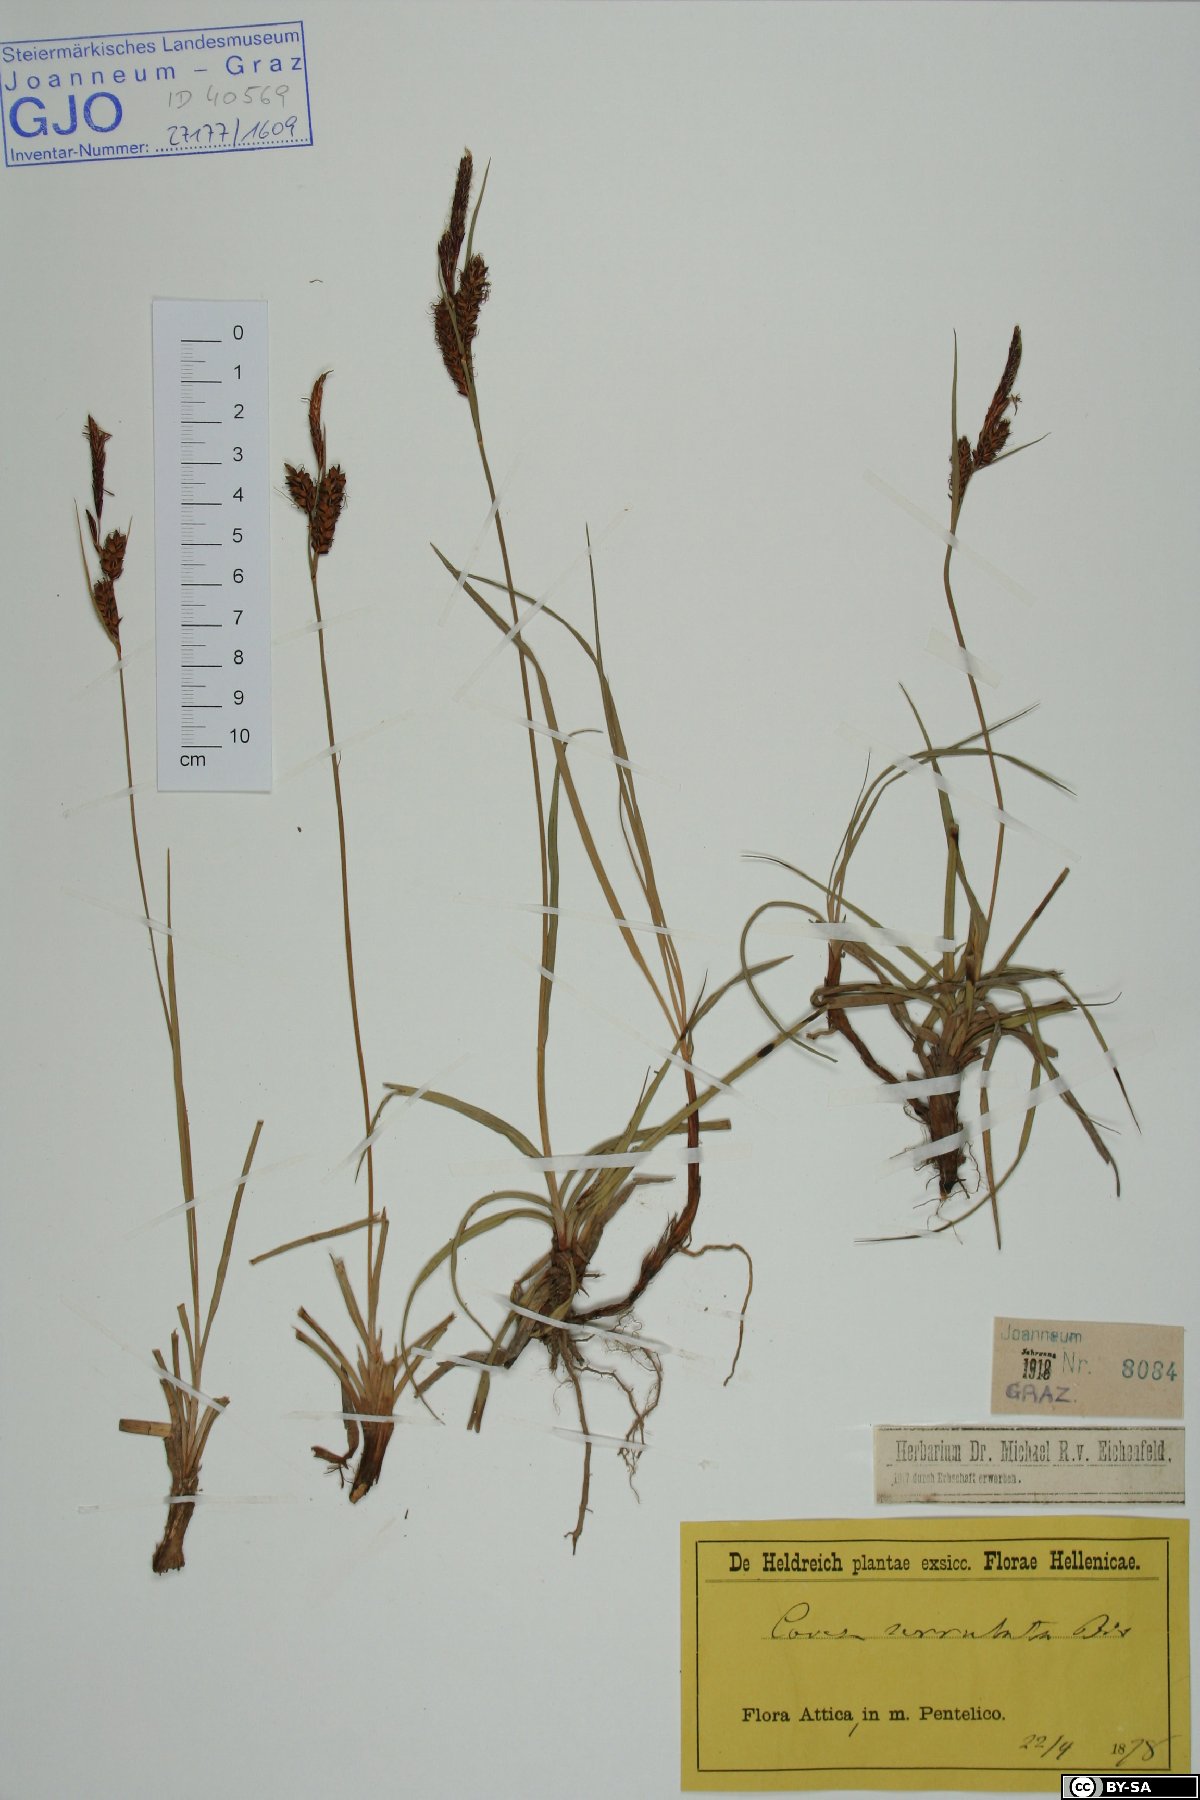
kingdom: Plantae
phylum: Tracheophyta
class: Liliopsida
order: Poales
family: Cyperaceae
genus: Carex
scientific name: Carex flacca
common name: Glaucous sedge
